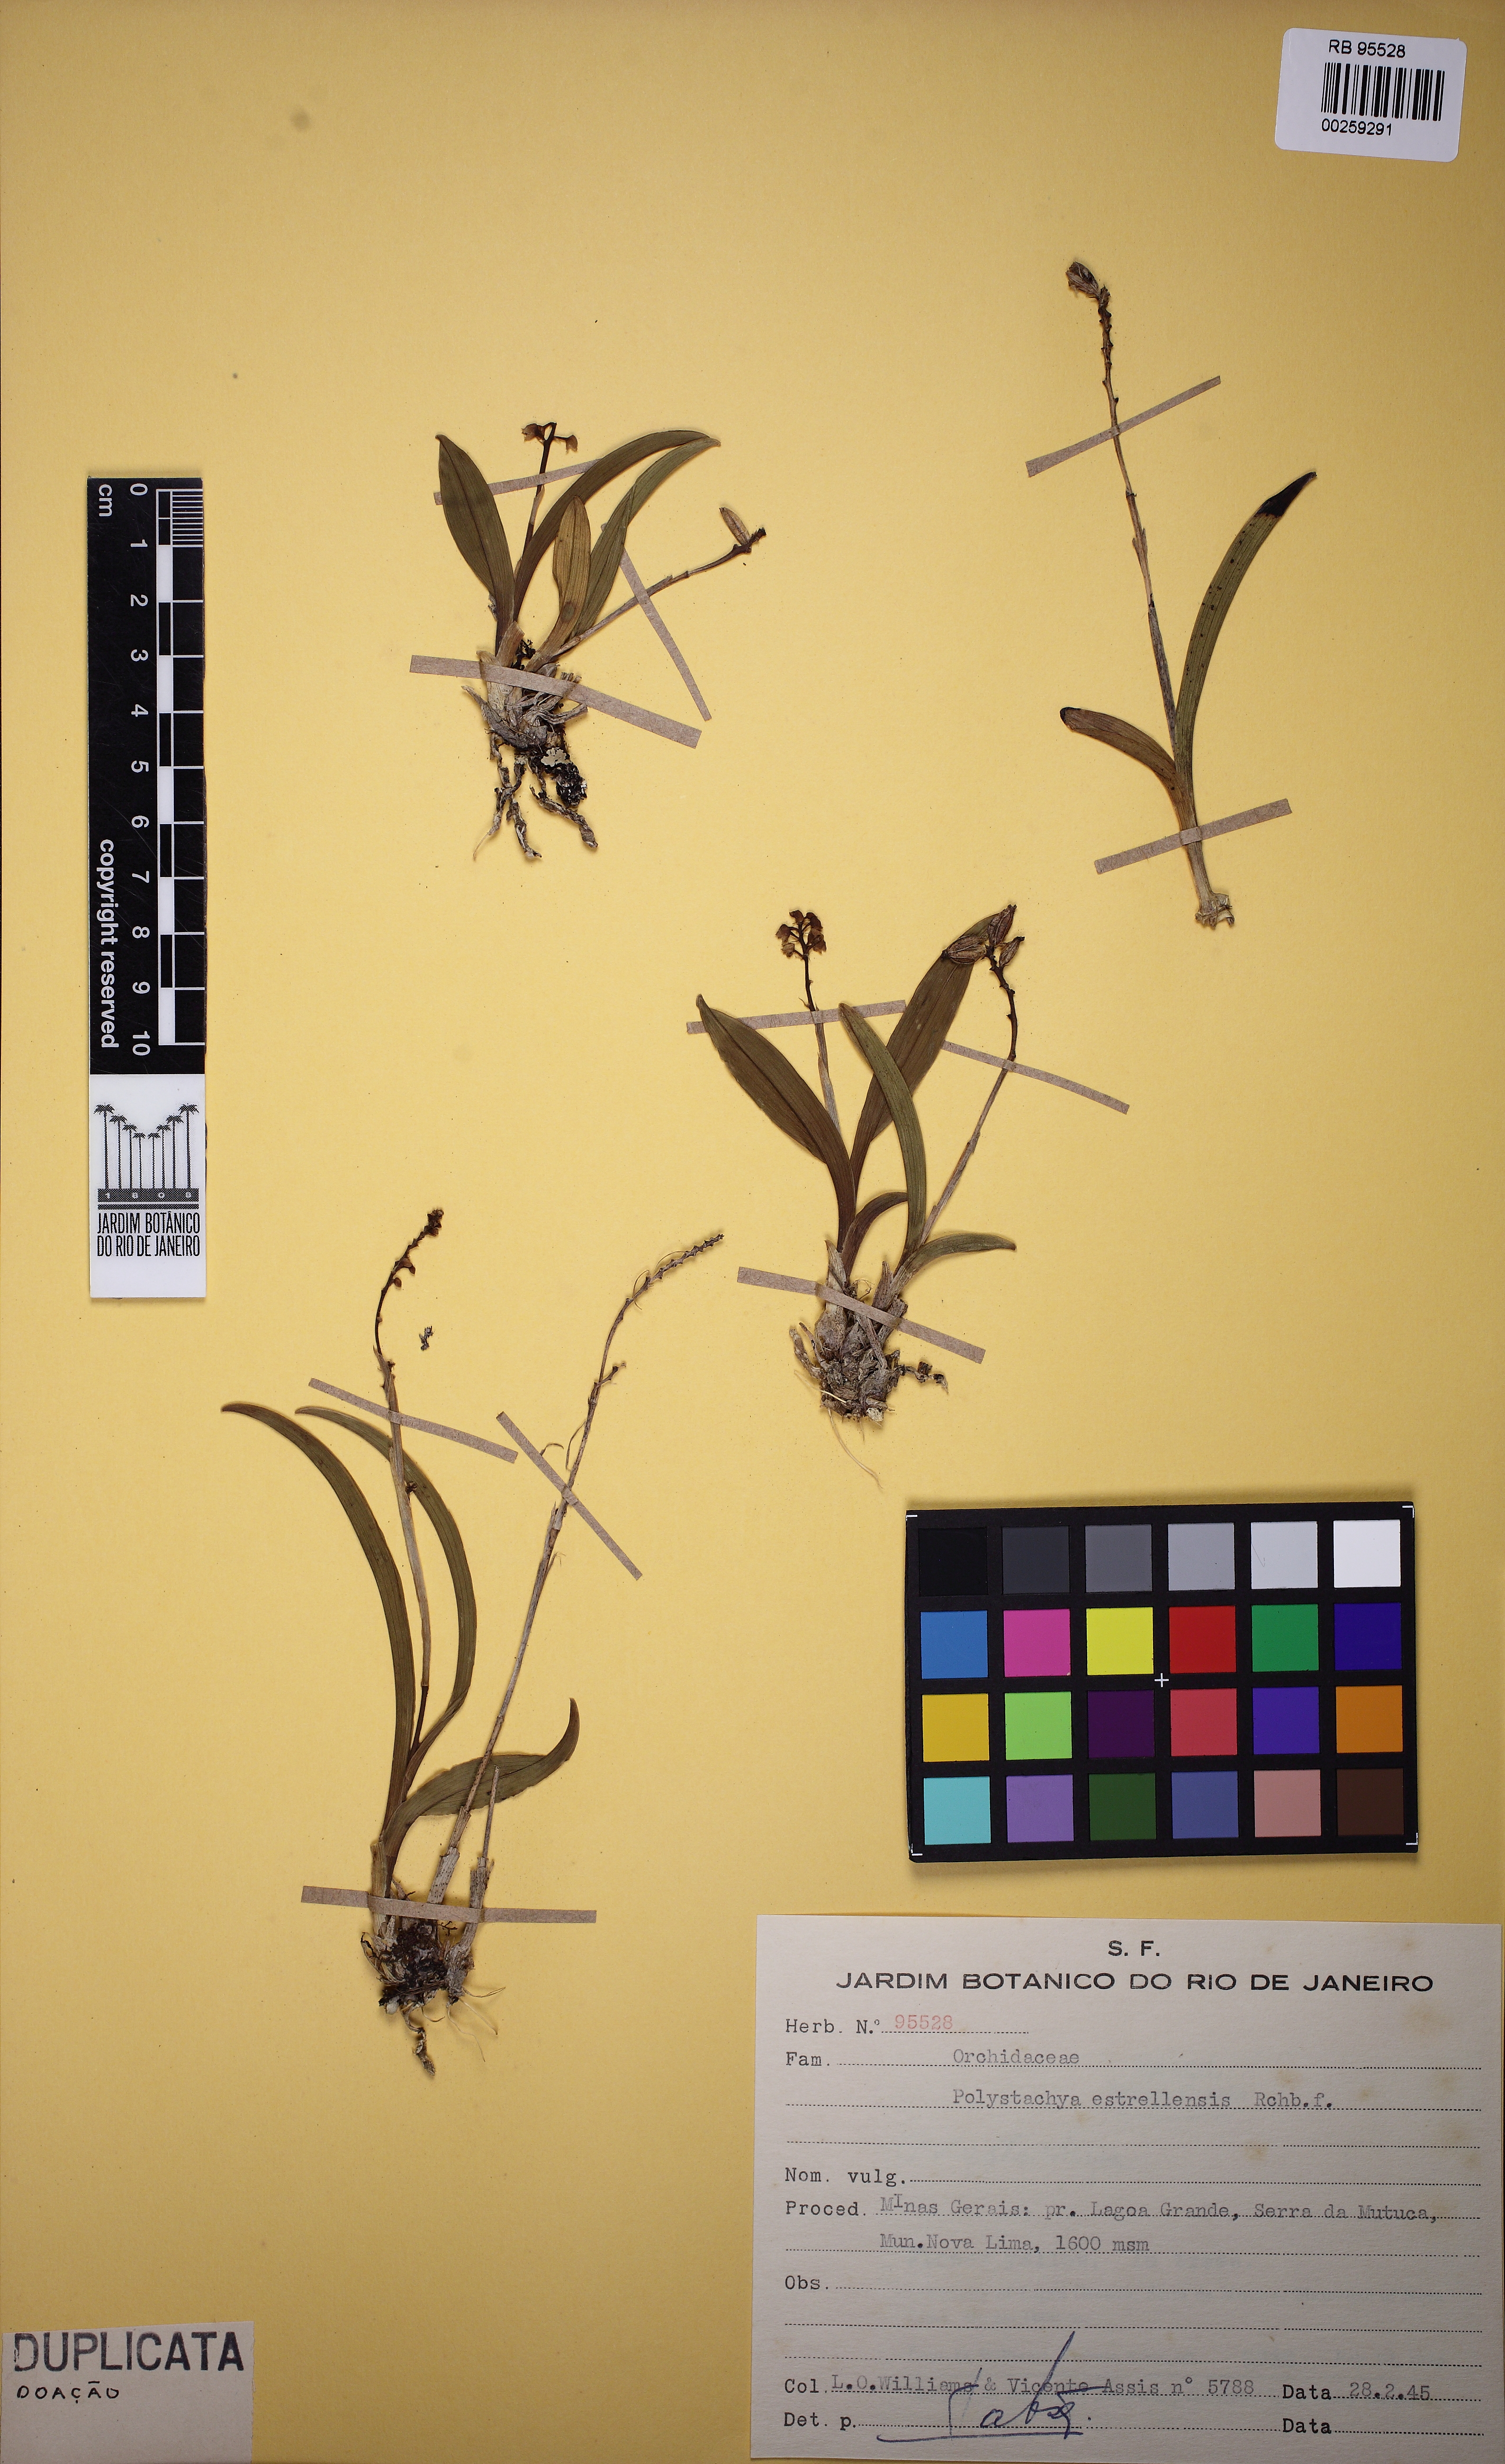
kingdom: Plantae
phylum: Tracheophyta
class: Liliopsida
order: Asparagales
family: Orchidaceae
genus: Polystachya
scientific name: Polystachya foliosa
